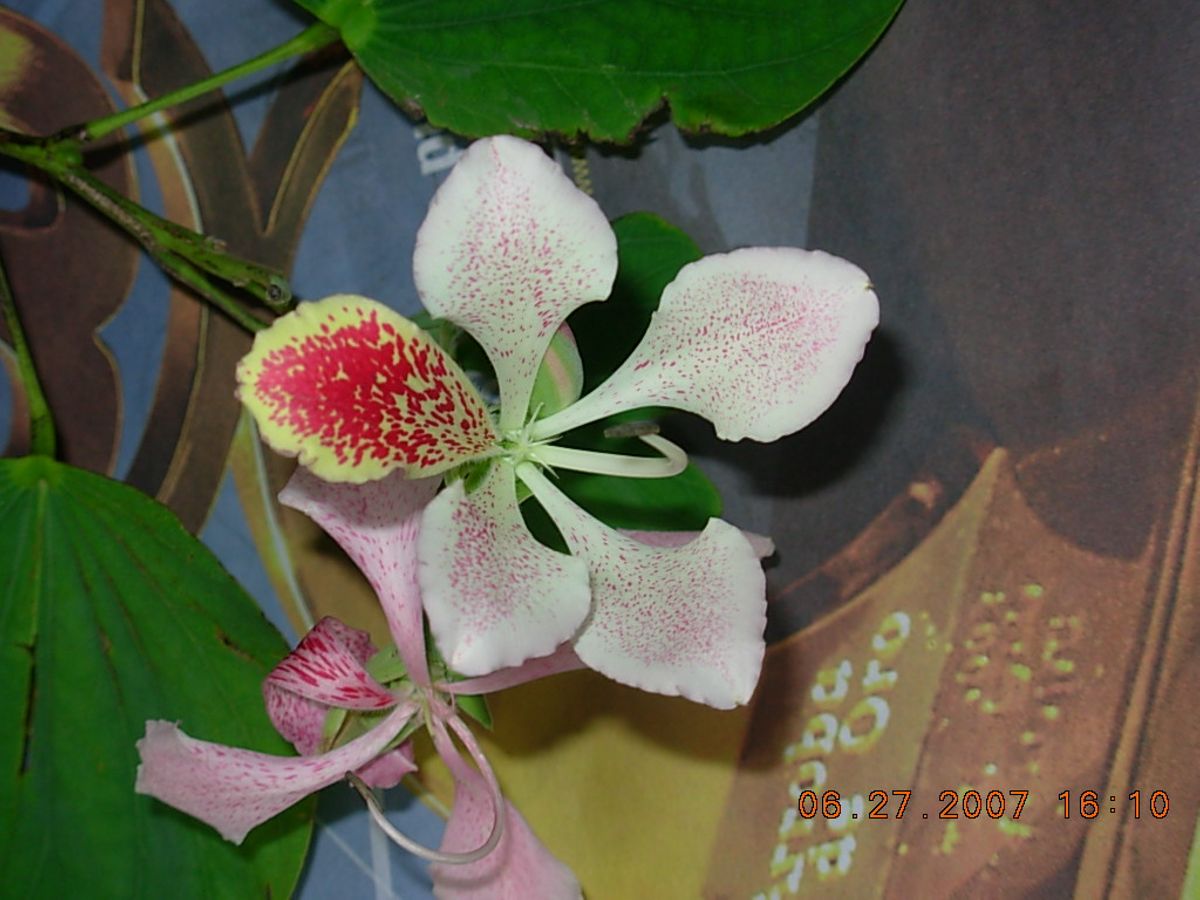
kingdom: Plantae
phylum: Tracheophyta
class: Magnoliopsida
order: Fabales
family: Fabaceae
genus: Bauhinia
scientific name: Bauhinia monandra
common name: Napoleon's plume
